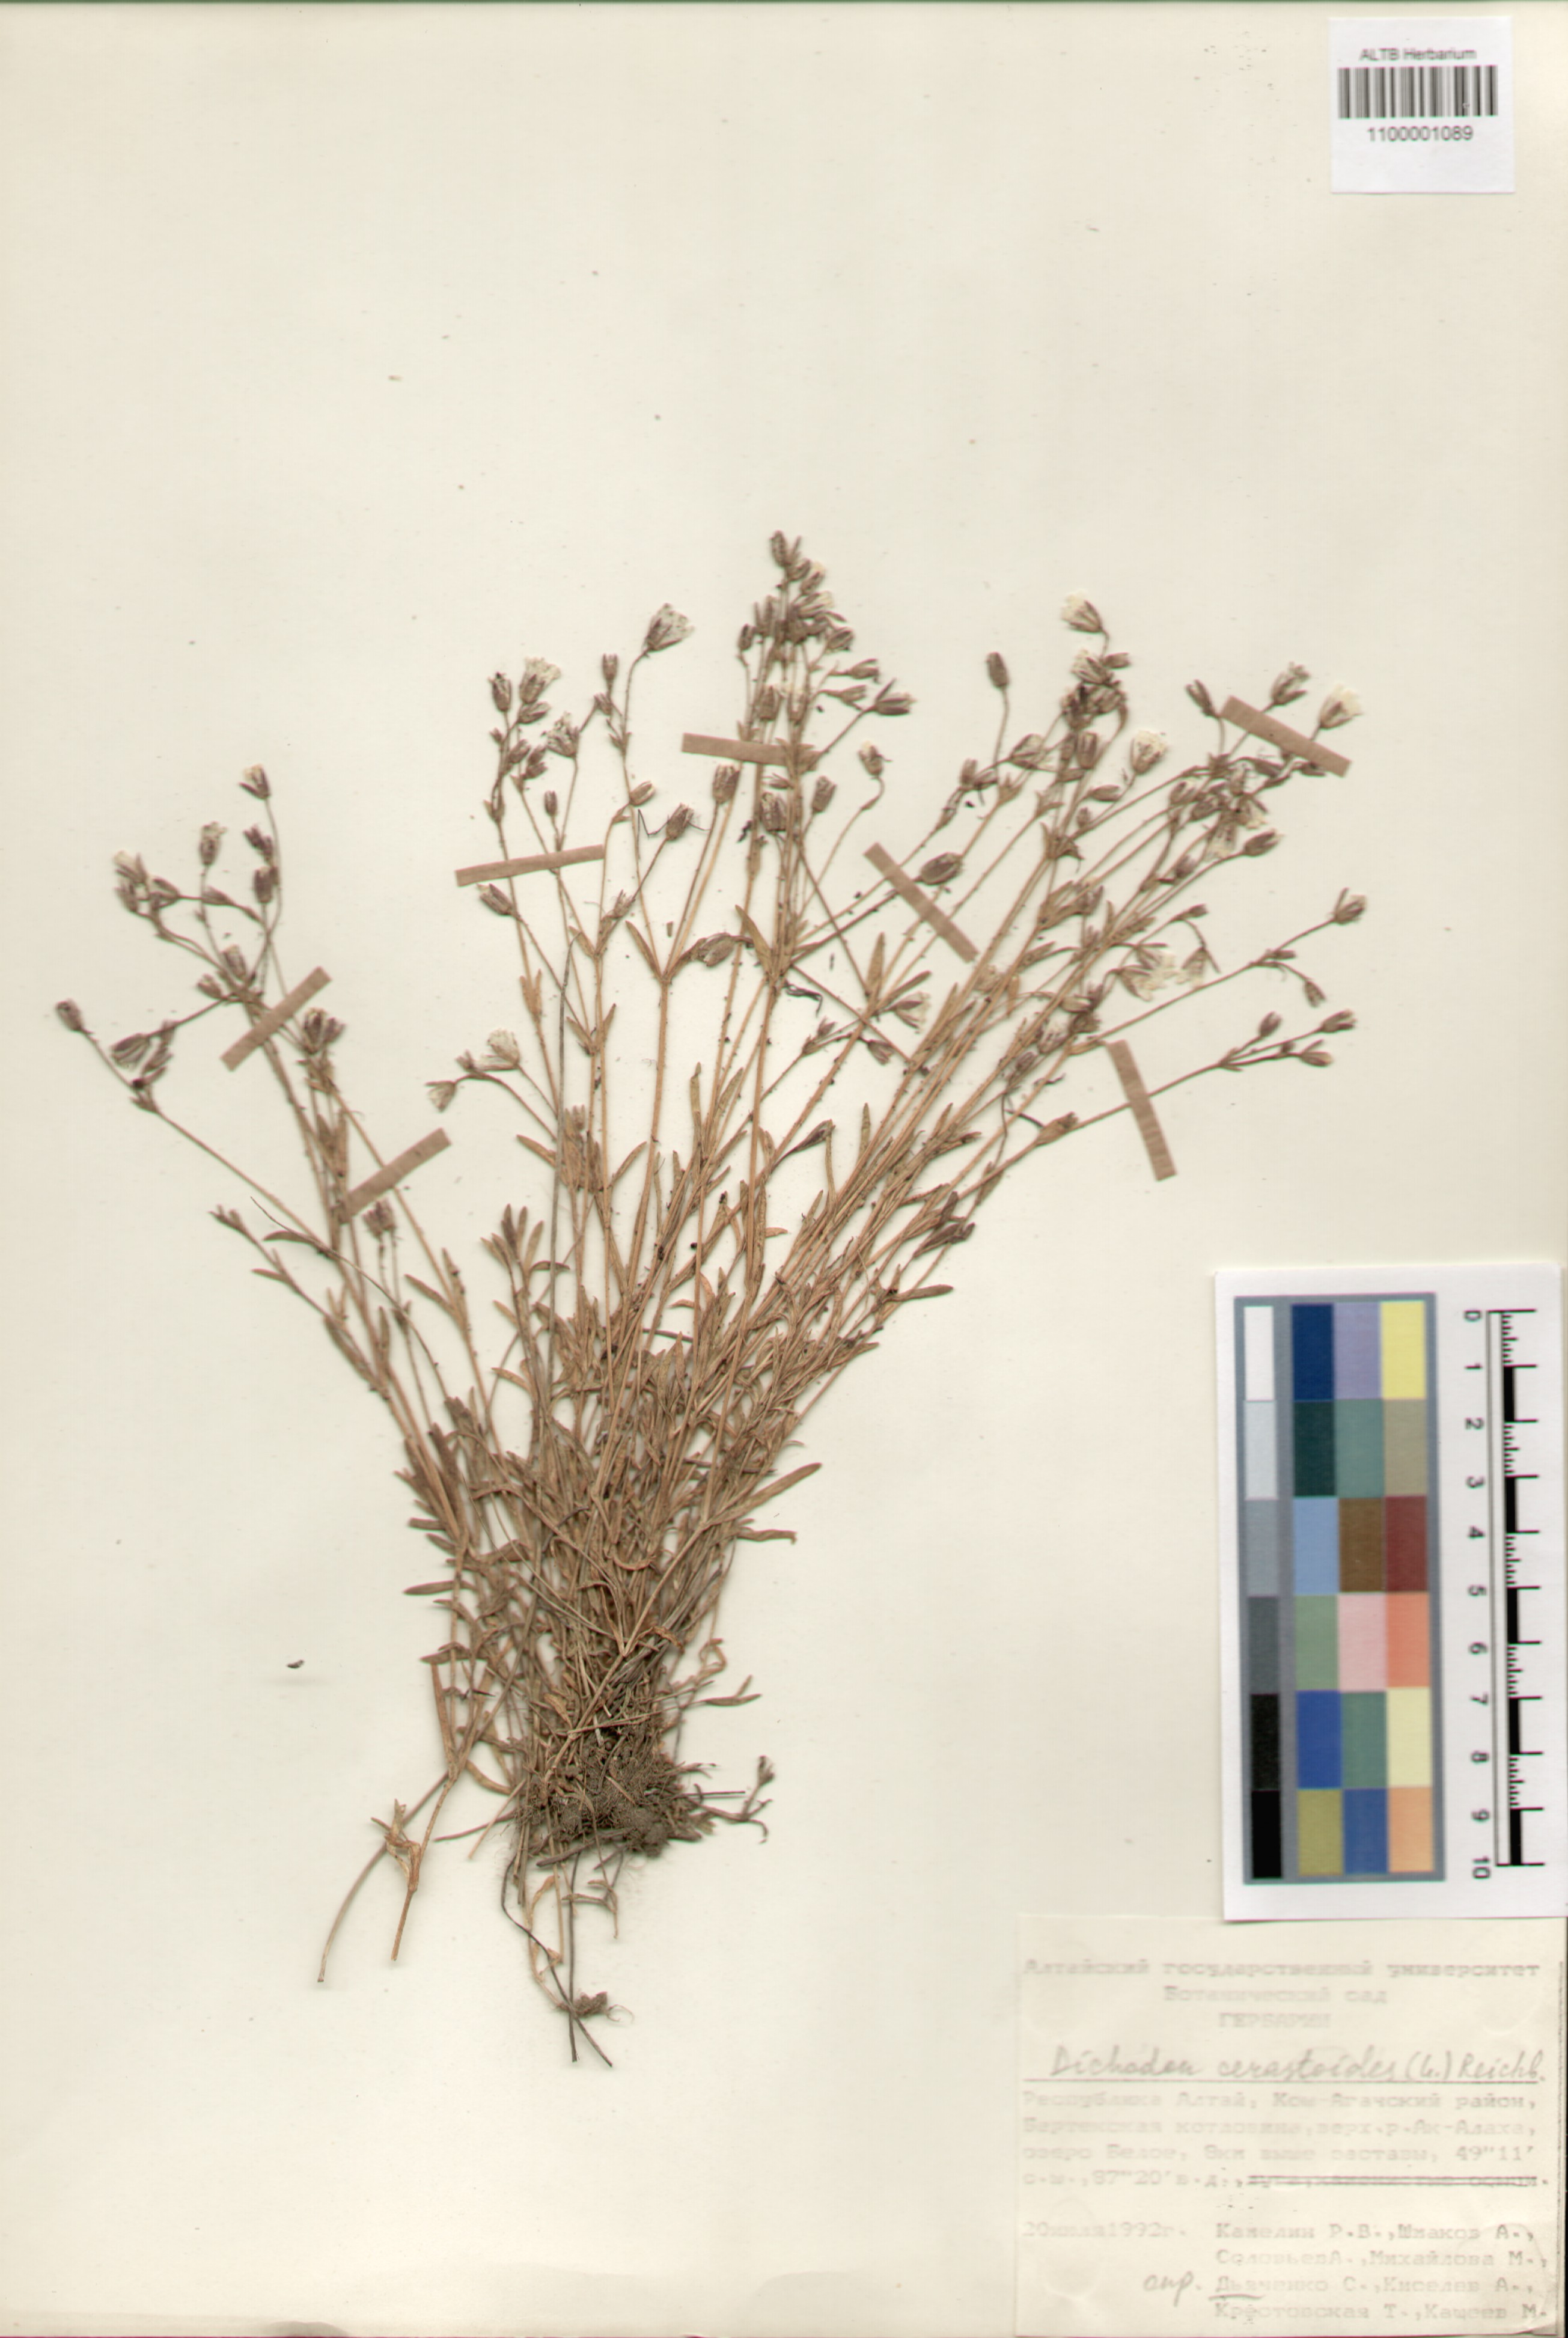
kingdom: Plantae
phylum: Tracheophyta
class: Magnoliopsida
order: Caryophyllales
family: Caryophyllaceae
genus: Dichodon
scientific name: Dichodon cerastoides
